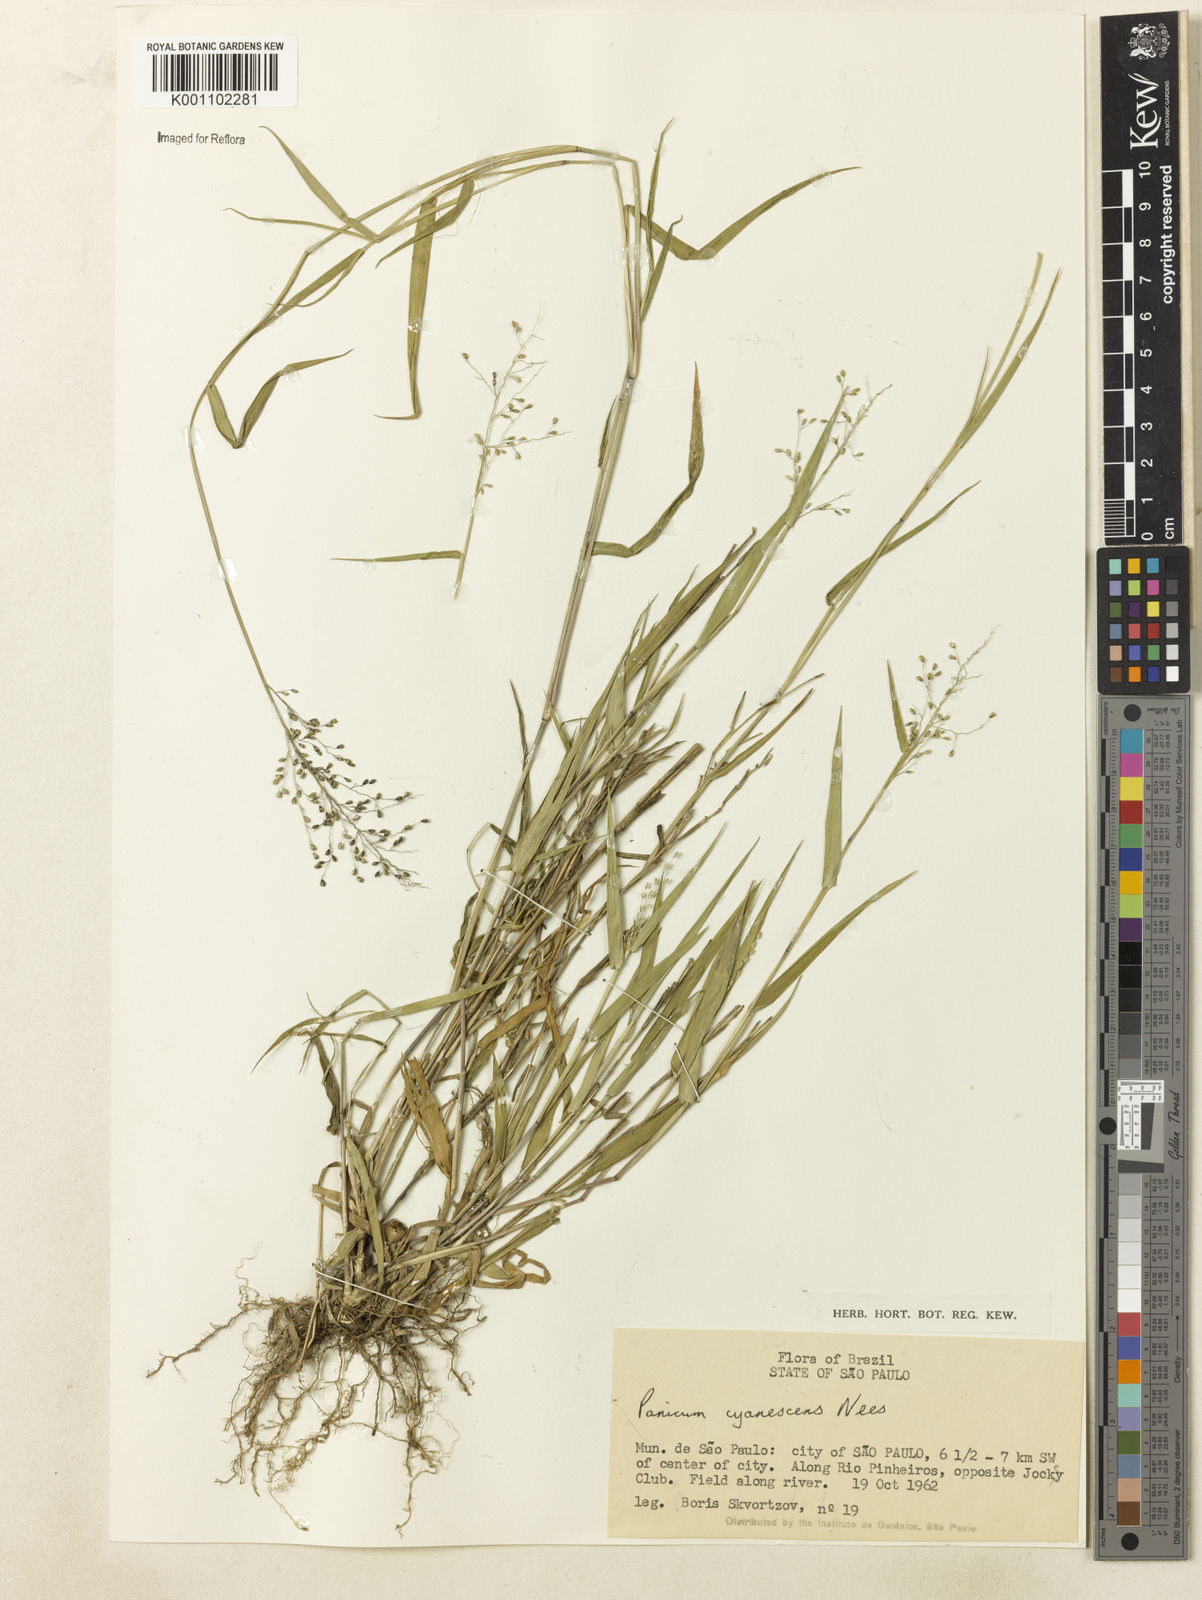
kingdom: Plantae
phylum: Tracheophyta
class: Liliopsida
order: Poales
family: Poaceae
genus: Dichanthelium
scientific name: Dichanthelium stigmosum
